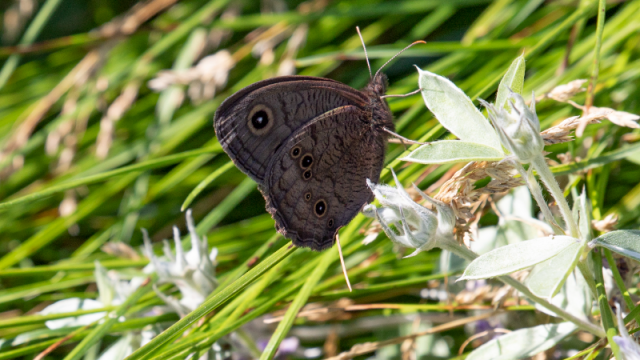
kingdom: Animalia
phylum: Arthropoda
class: Insecta
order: Lepidoptera
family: Nymphalidae
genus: Cercyonis
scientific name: Cercyonis pegala
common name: Common Wood-Nymph
